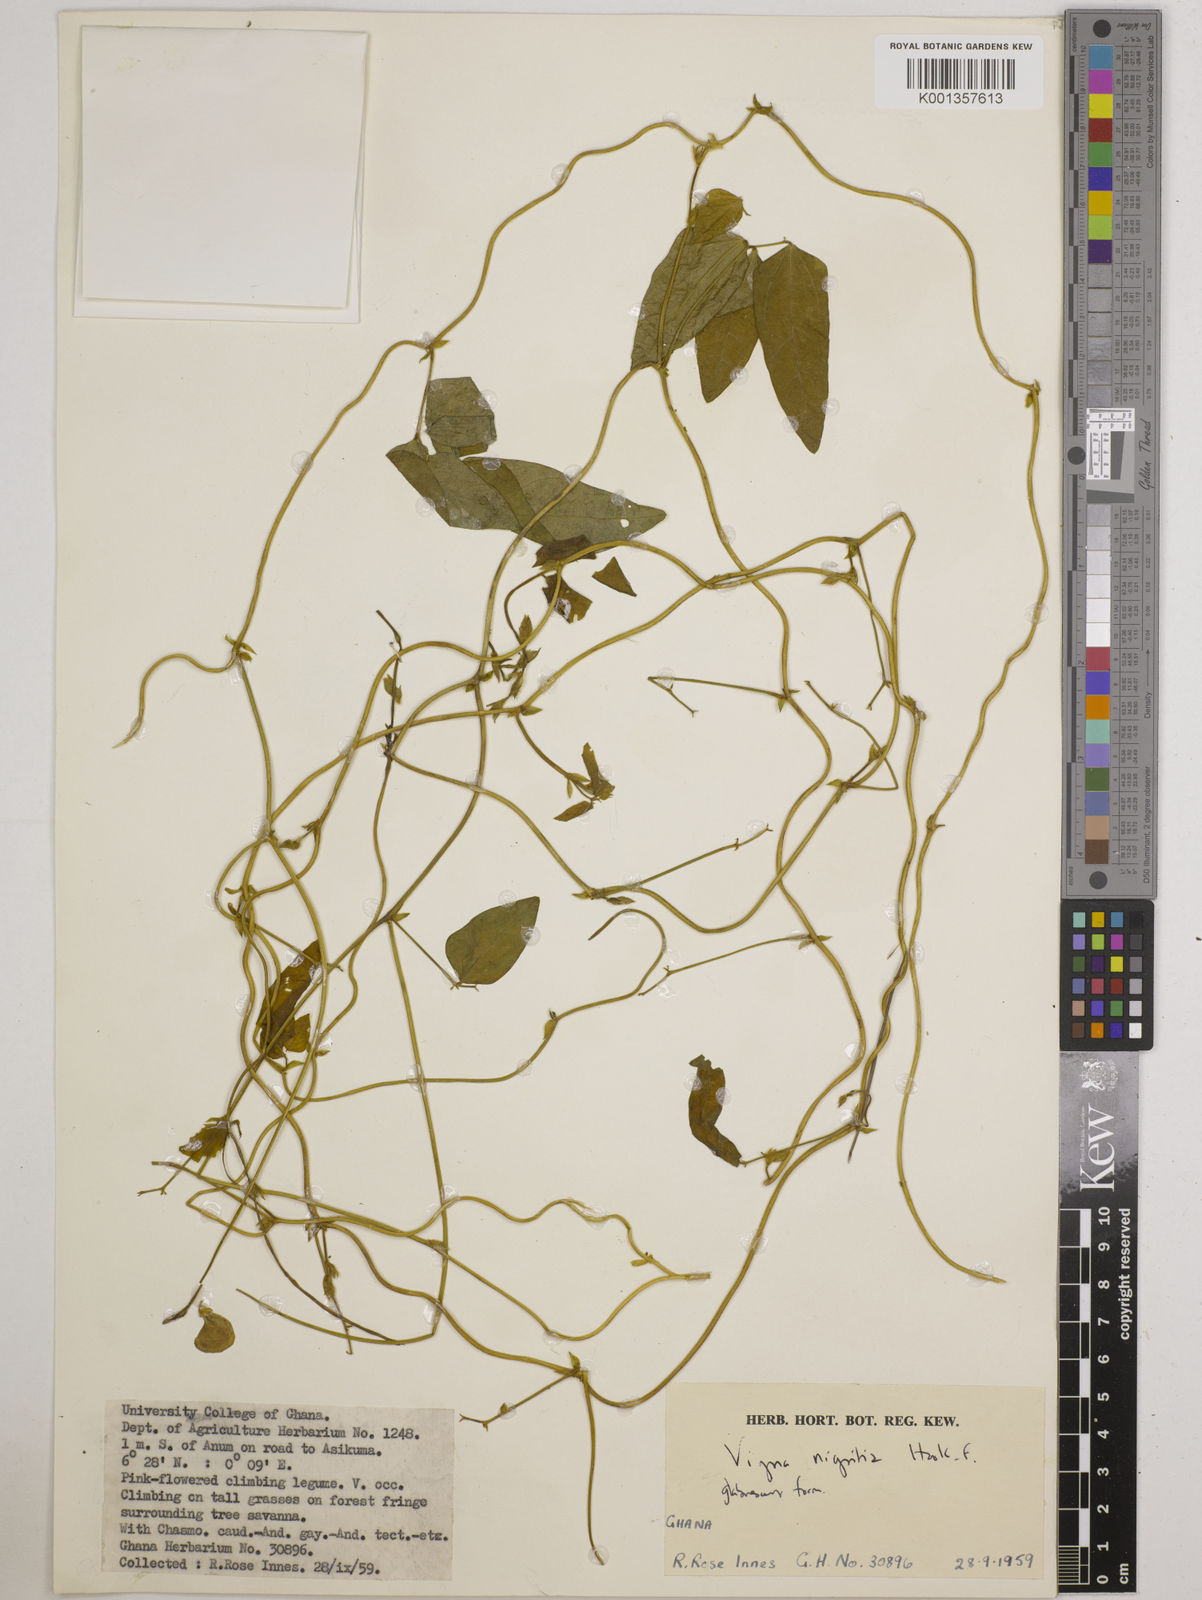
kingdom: Plantae
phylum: Tracheophyta
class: Magnoliopsida
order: Fabales
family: Fabaceae
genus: Vigna
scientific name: Vigna nigritia
